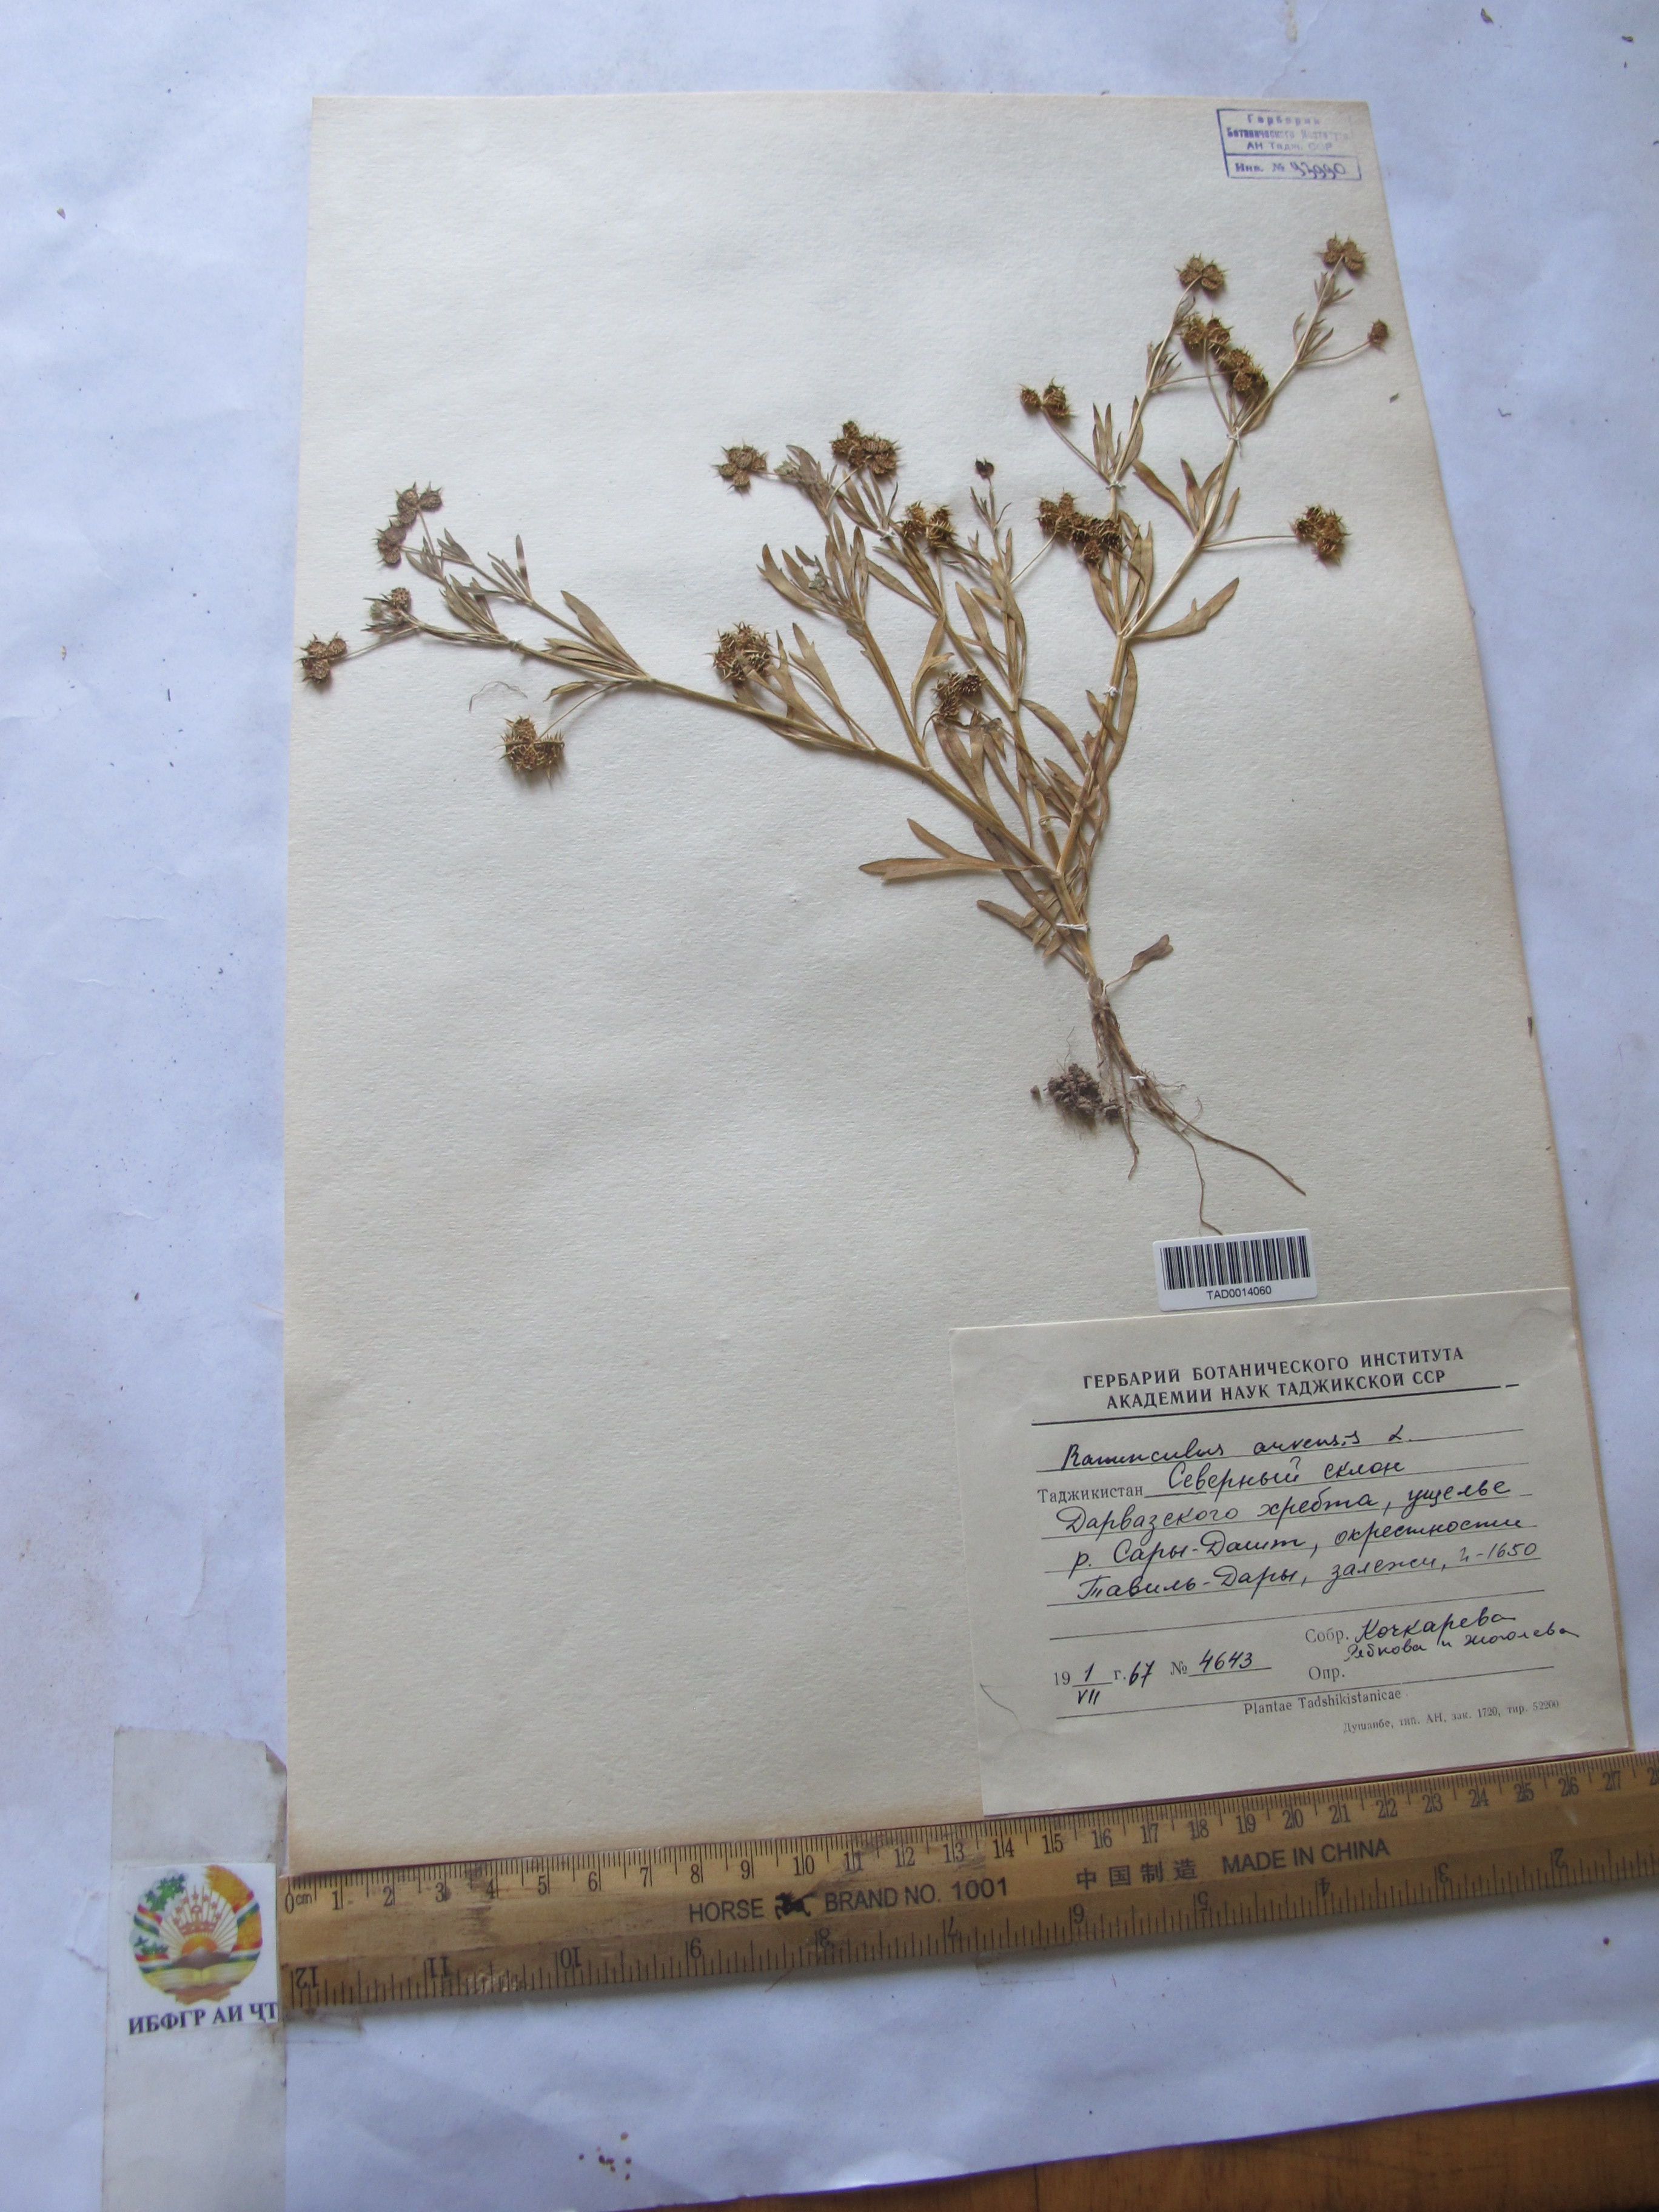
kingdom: Plantae
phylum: Tracheophyta
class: Magnoliopsida
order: Ranunculales
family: Ranunculaceae
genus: Ranunculus
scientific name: Ranunculus arvensis
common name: Corn buttercup
